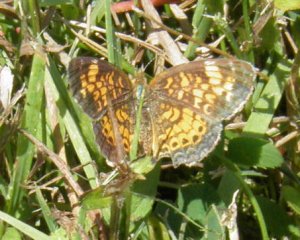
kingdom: Animalia
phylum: Arthropoda
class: Insecta
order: Lepidoptera
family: Nymphalidae
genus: Phyciodes
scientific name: Phyciodes tharos
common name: Northern Crescent
